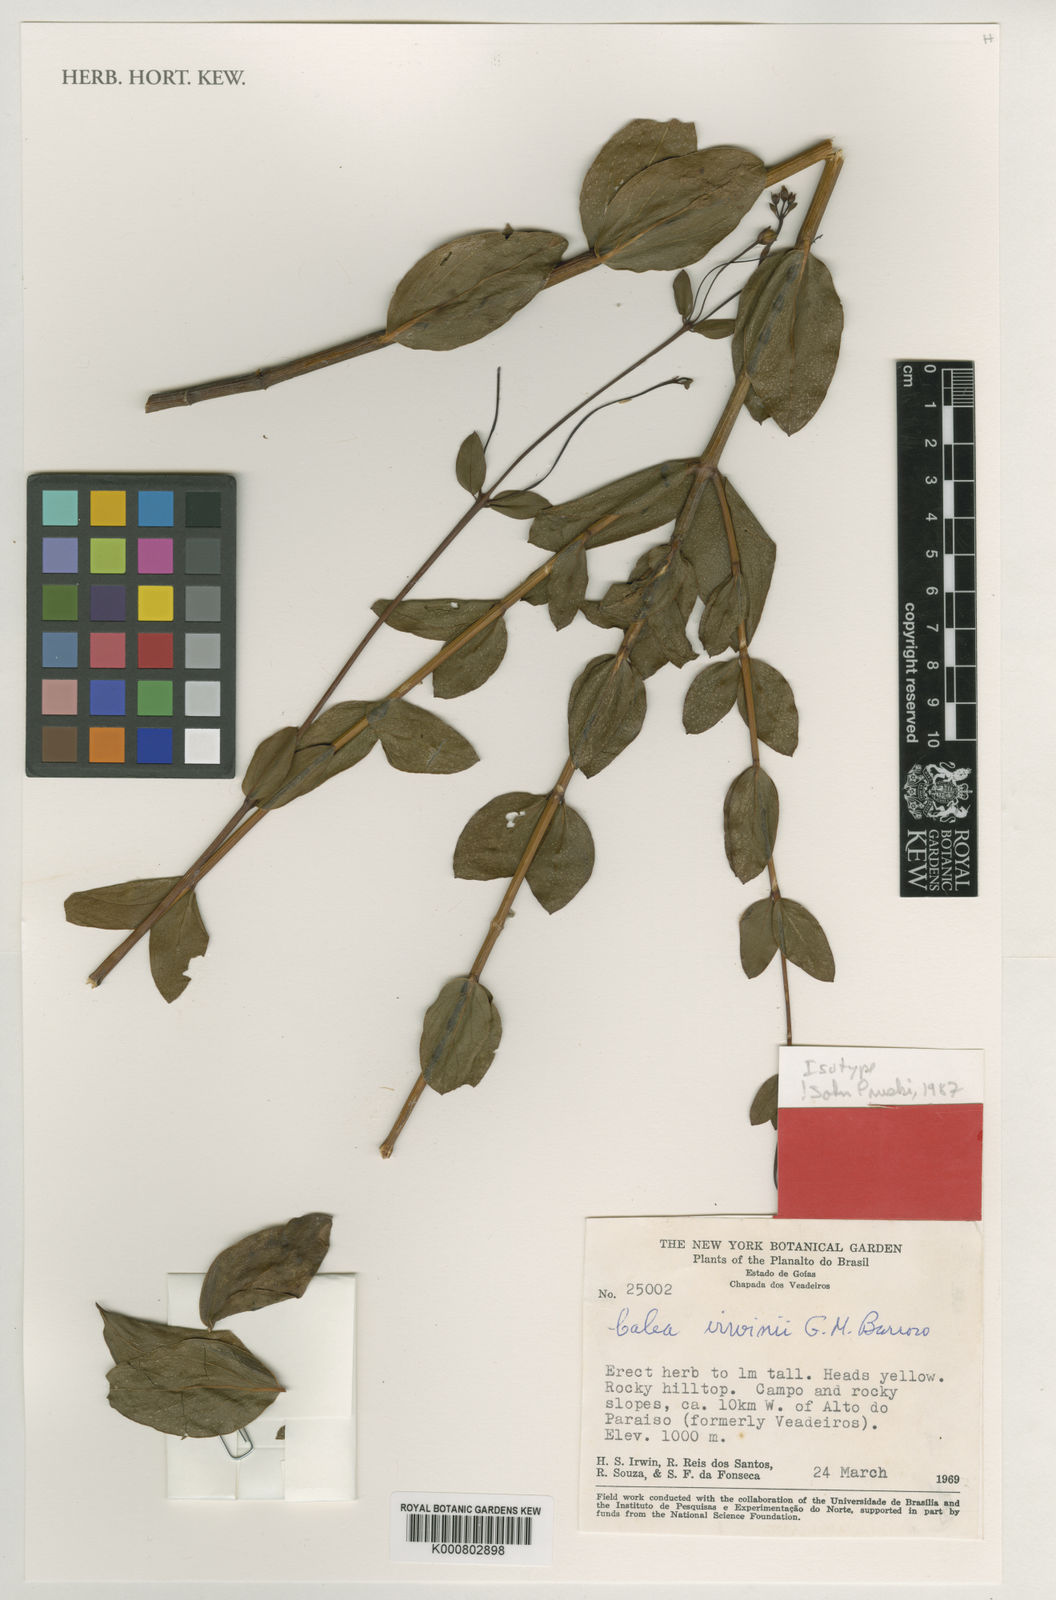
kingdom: Plantae
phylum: Tracheophyta
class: Magnoliopsida
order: Asterales
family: Asteraceae
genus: Calea
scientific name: Calea irwinii
